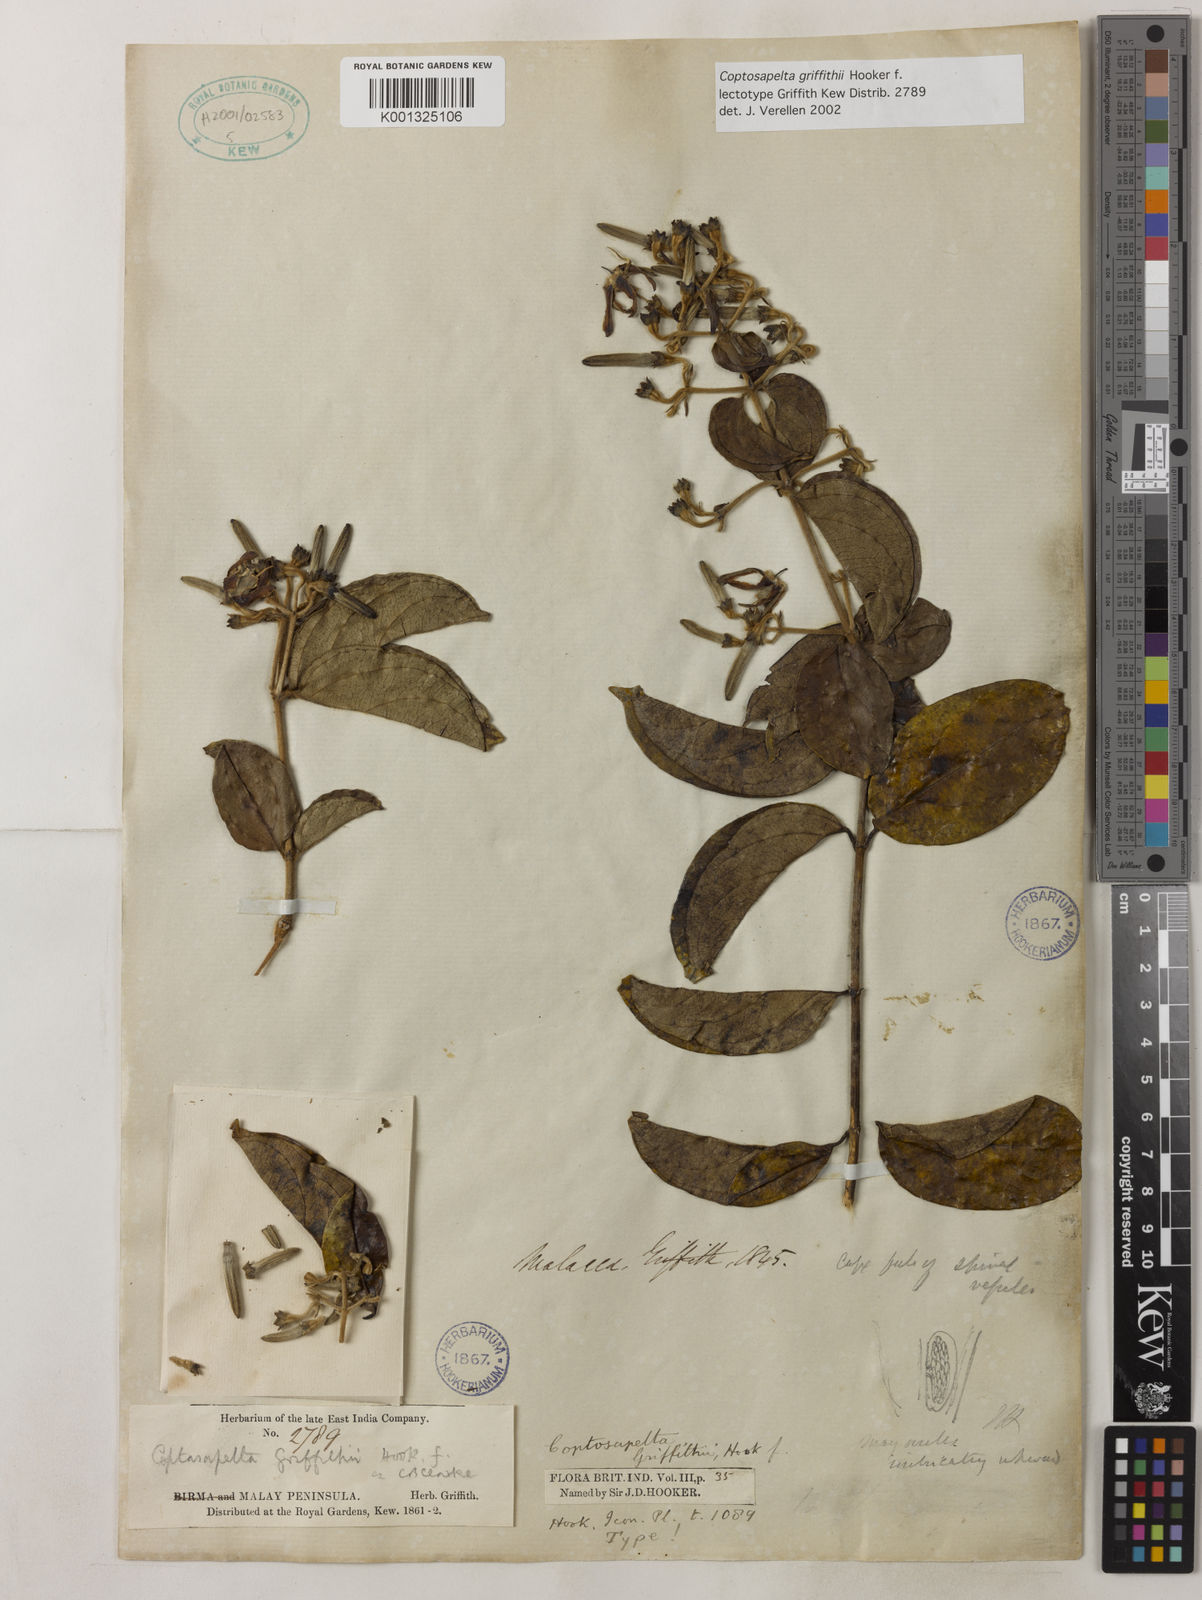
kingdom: Plantae
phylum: Tracheophyta
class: Magnoliopsida
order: Gentianales
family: Rubiaceae
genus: Coptosapelta
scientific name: Coptosapelta griffithii
